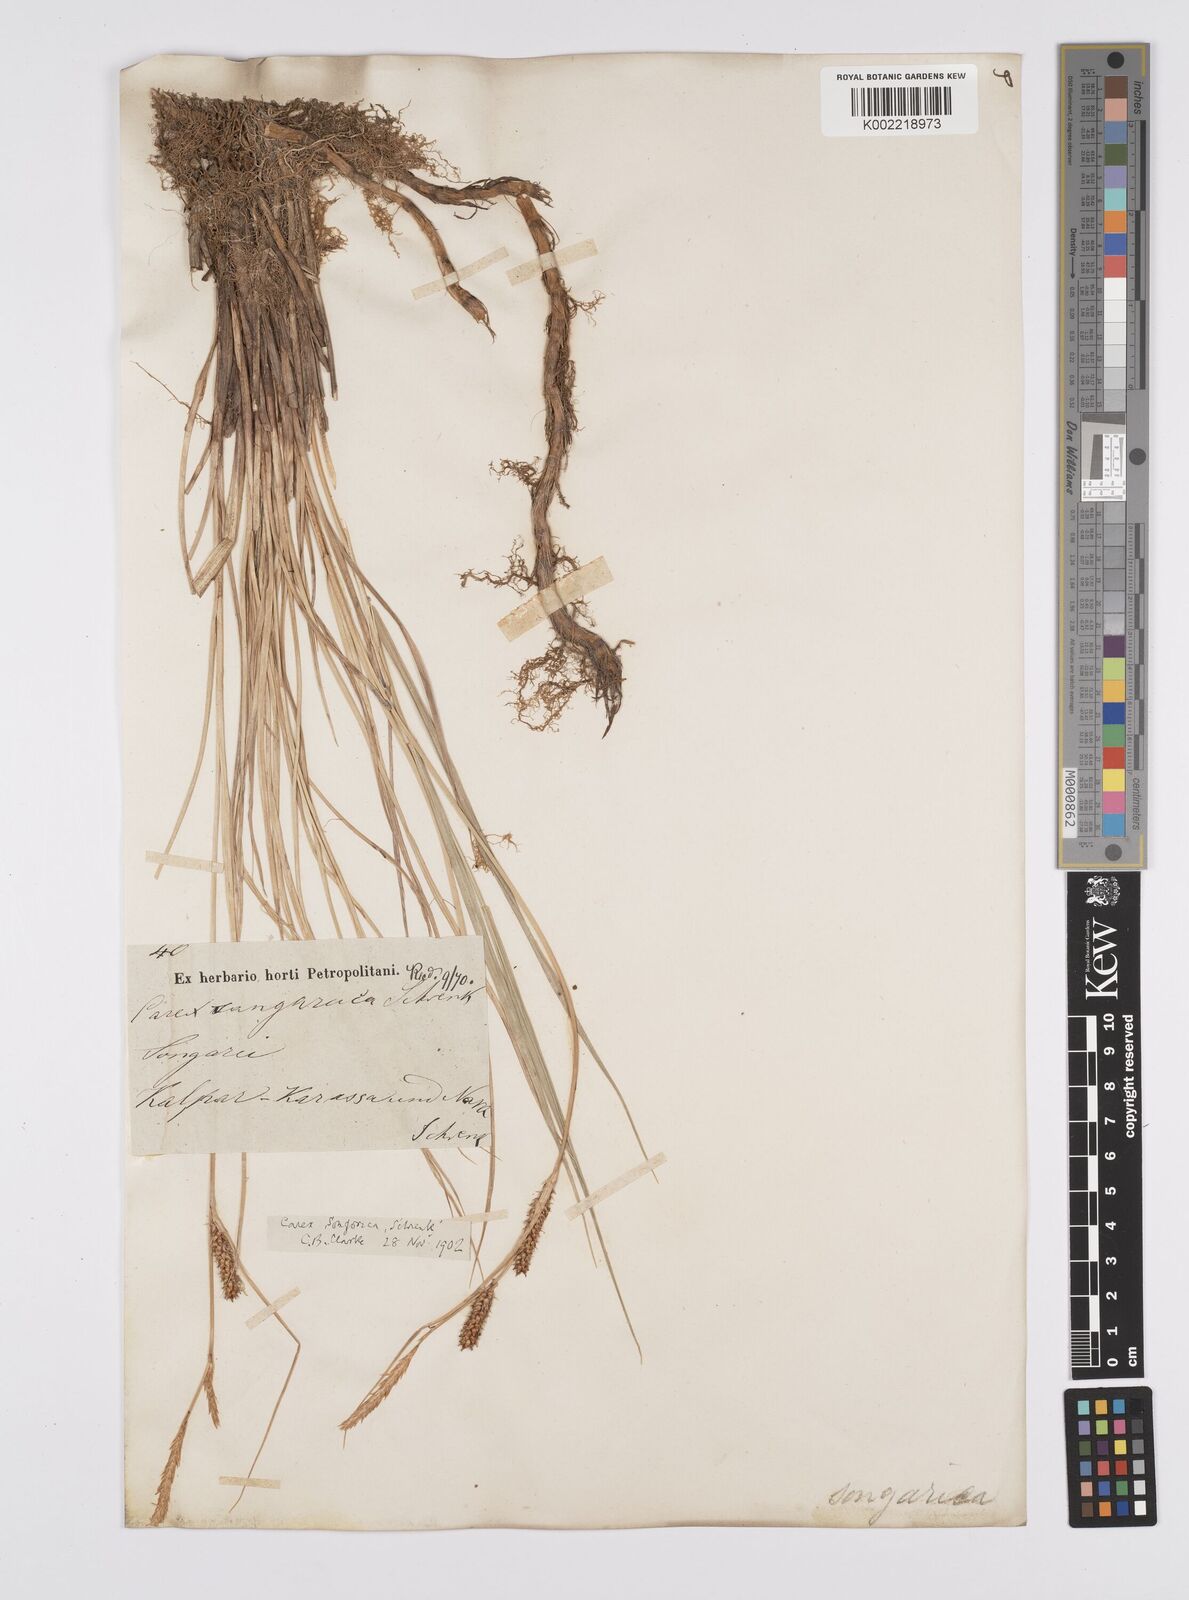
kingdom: Plantae
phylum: Tracheophyta
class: Liliopsida
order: Poales
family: Cyperaceae
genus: Carex
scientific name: Carex heterostachya
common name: Different-spike sedge
